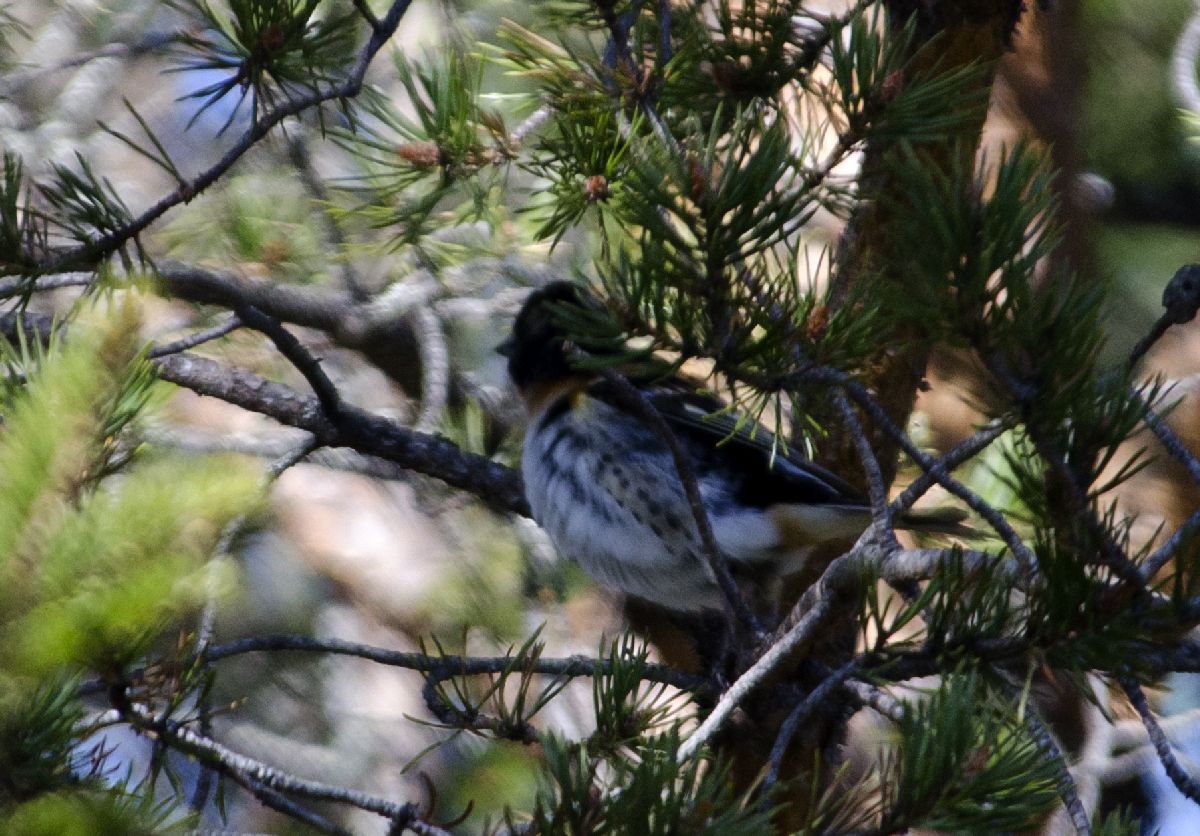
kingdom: Animalia
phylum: Chordata
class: Aves
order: Passeriformes
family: Fringillidae
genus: Fringilla
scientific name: Fringilla montifringilla
